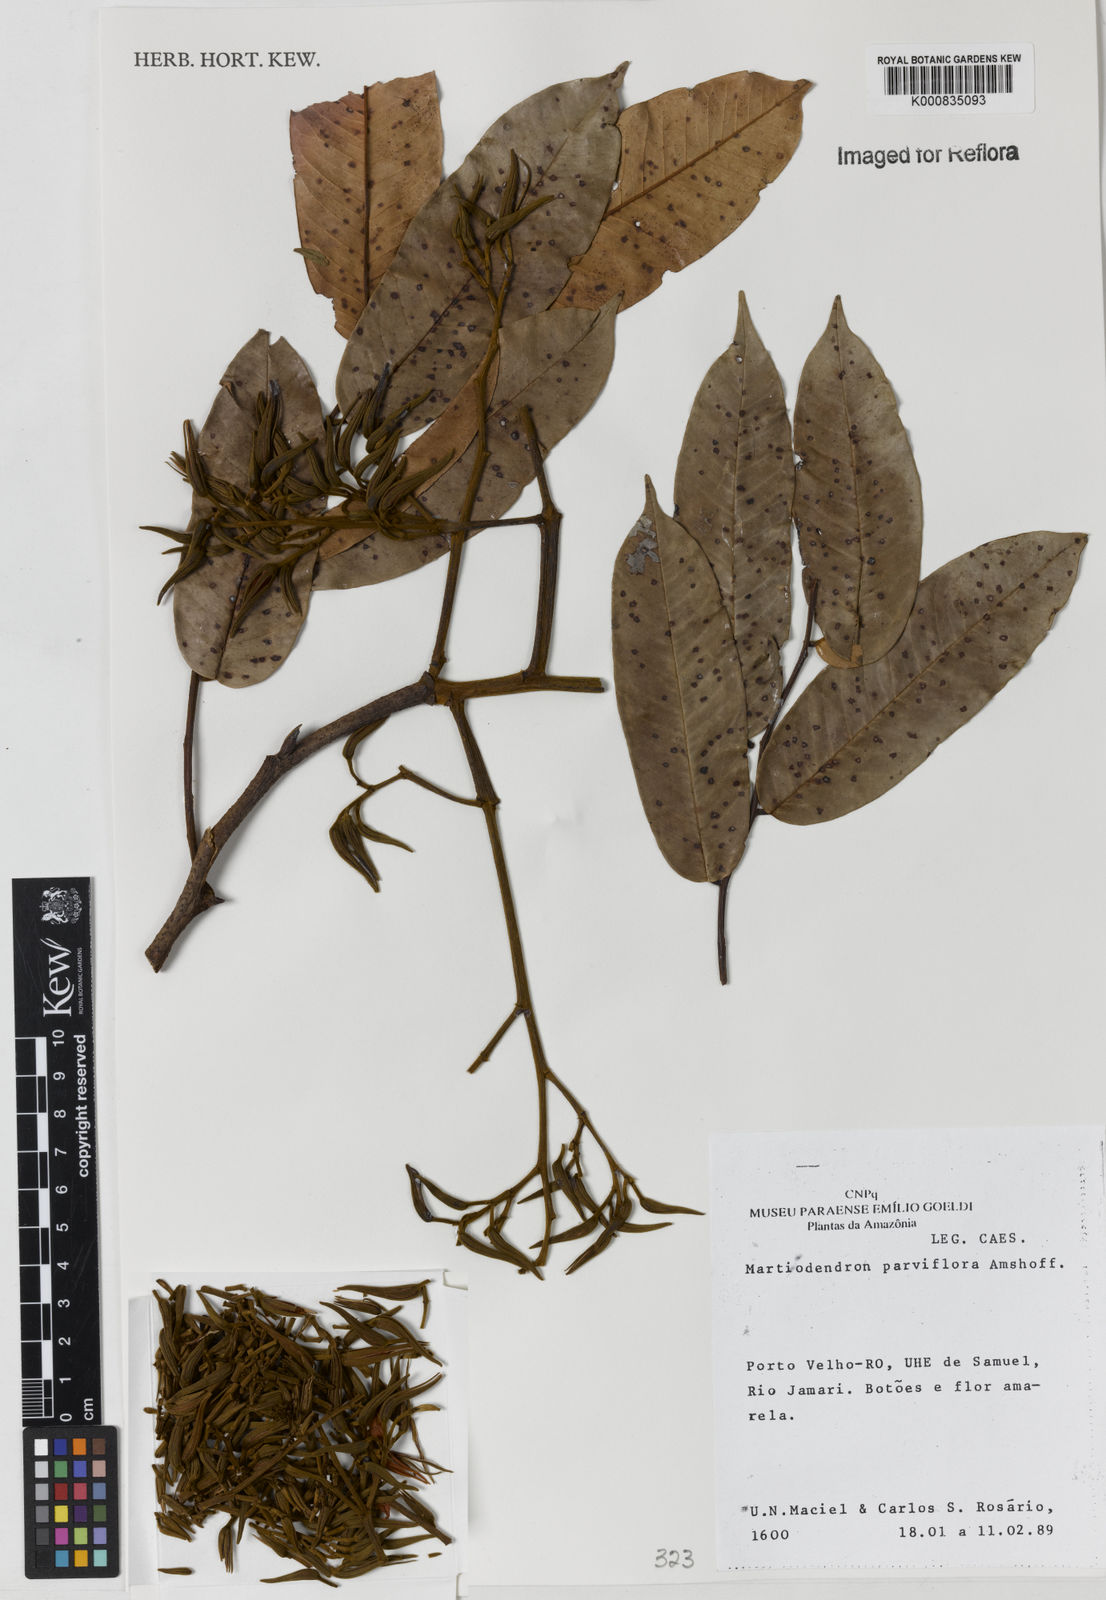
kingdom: Plantae
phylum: Tracheophyta
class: Magnoliopsida
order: Fabales
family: Fabaceae
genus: Martiodendron
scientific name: Martiodendron
